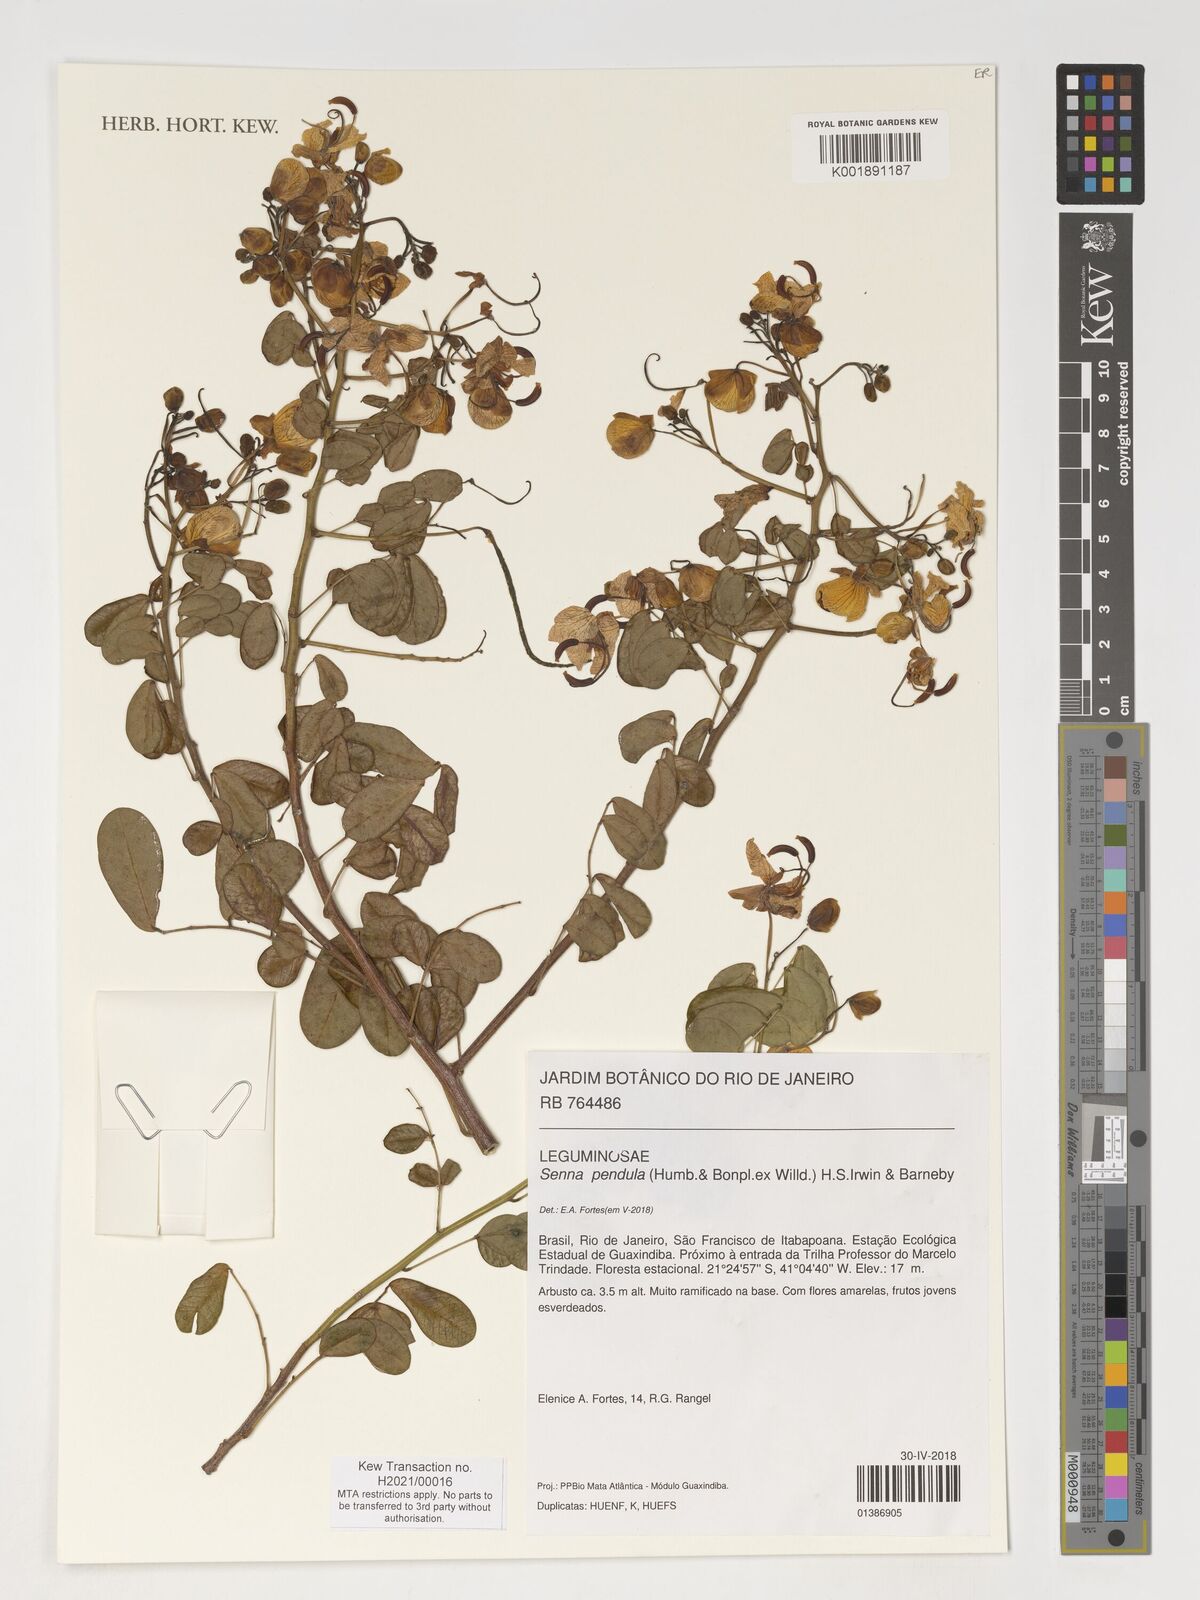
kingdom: Plantae
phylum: Tracheophyta
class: Magnoliopsida
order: Fabales
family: Fabaceae
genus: Senna
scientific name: Senna pendula
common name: Easter cassia
